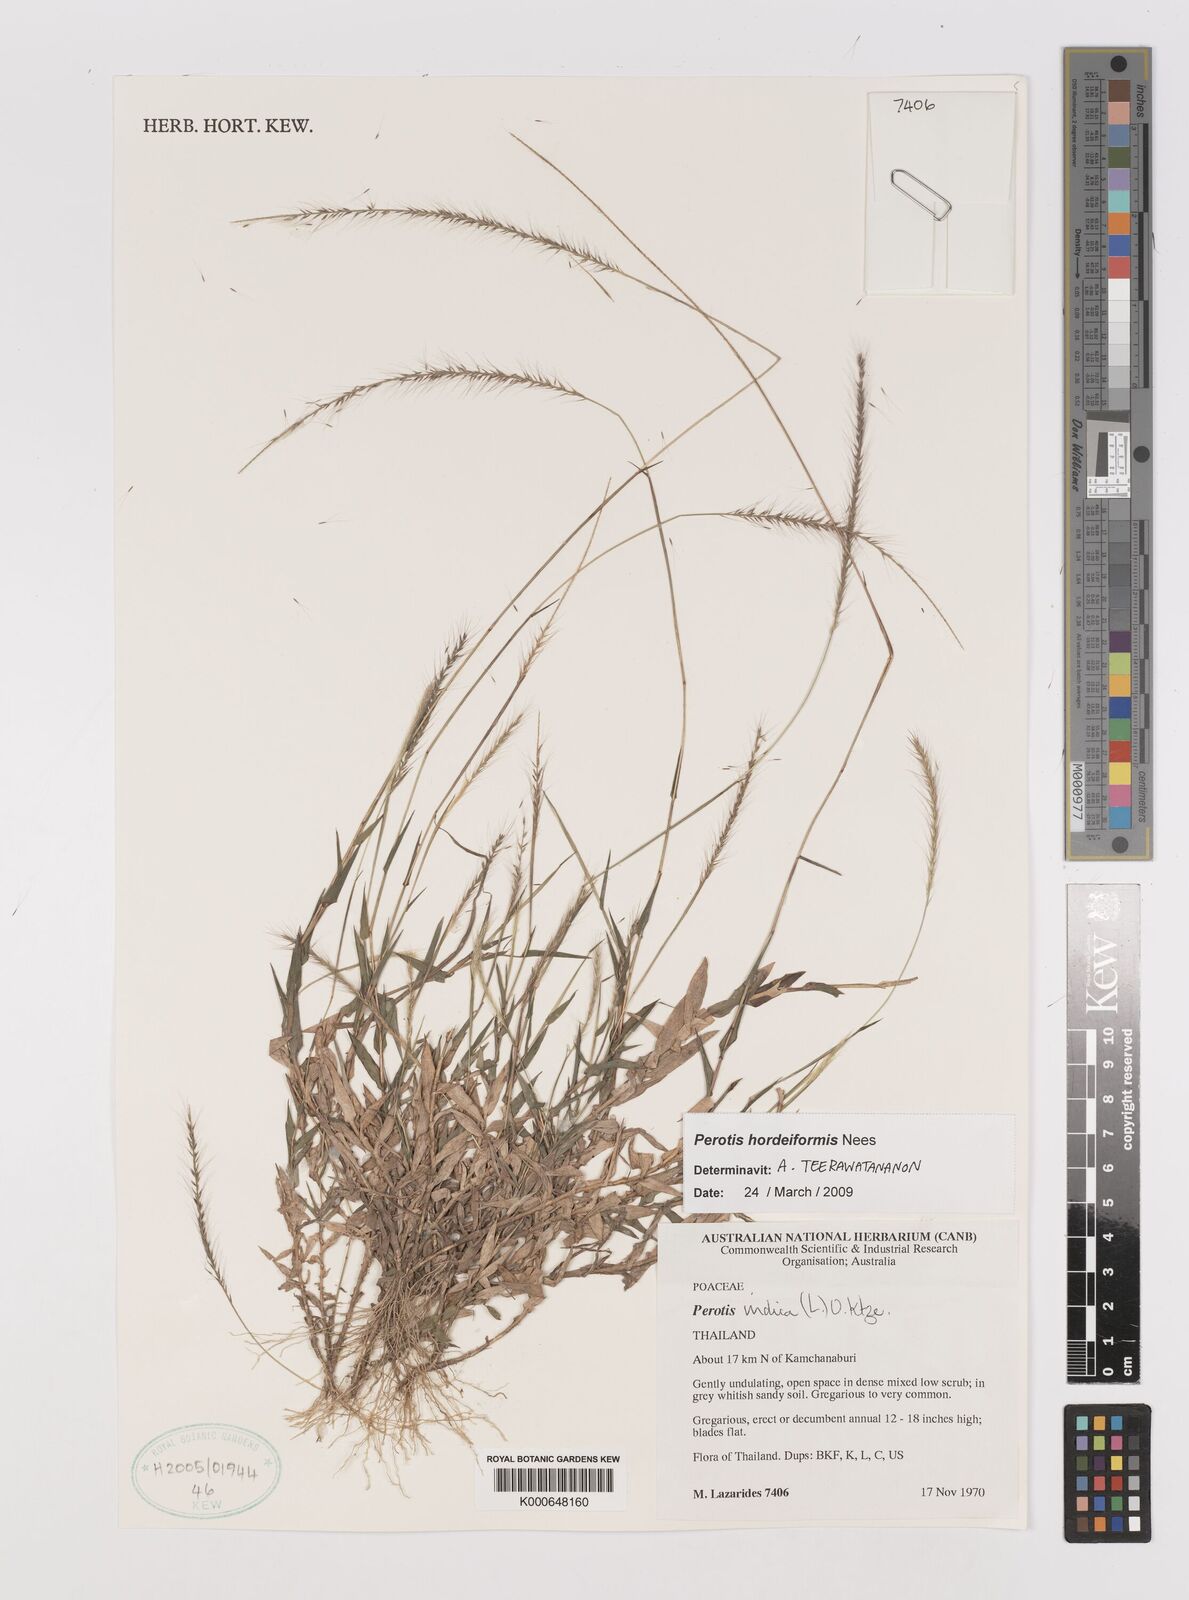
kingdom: Plantae
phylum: Tracheophyta
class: Liliopsida
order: Poales
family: Poaceae
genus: Perotis
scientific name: Perotis hordeiformis
